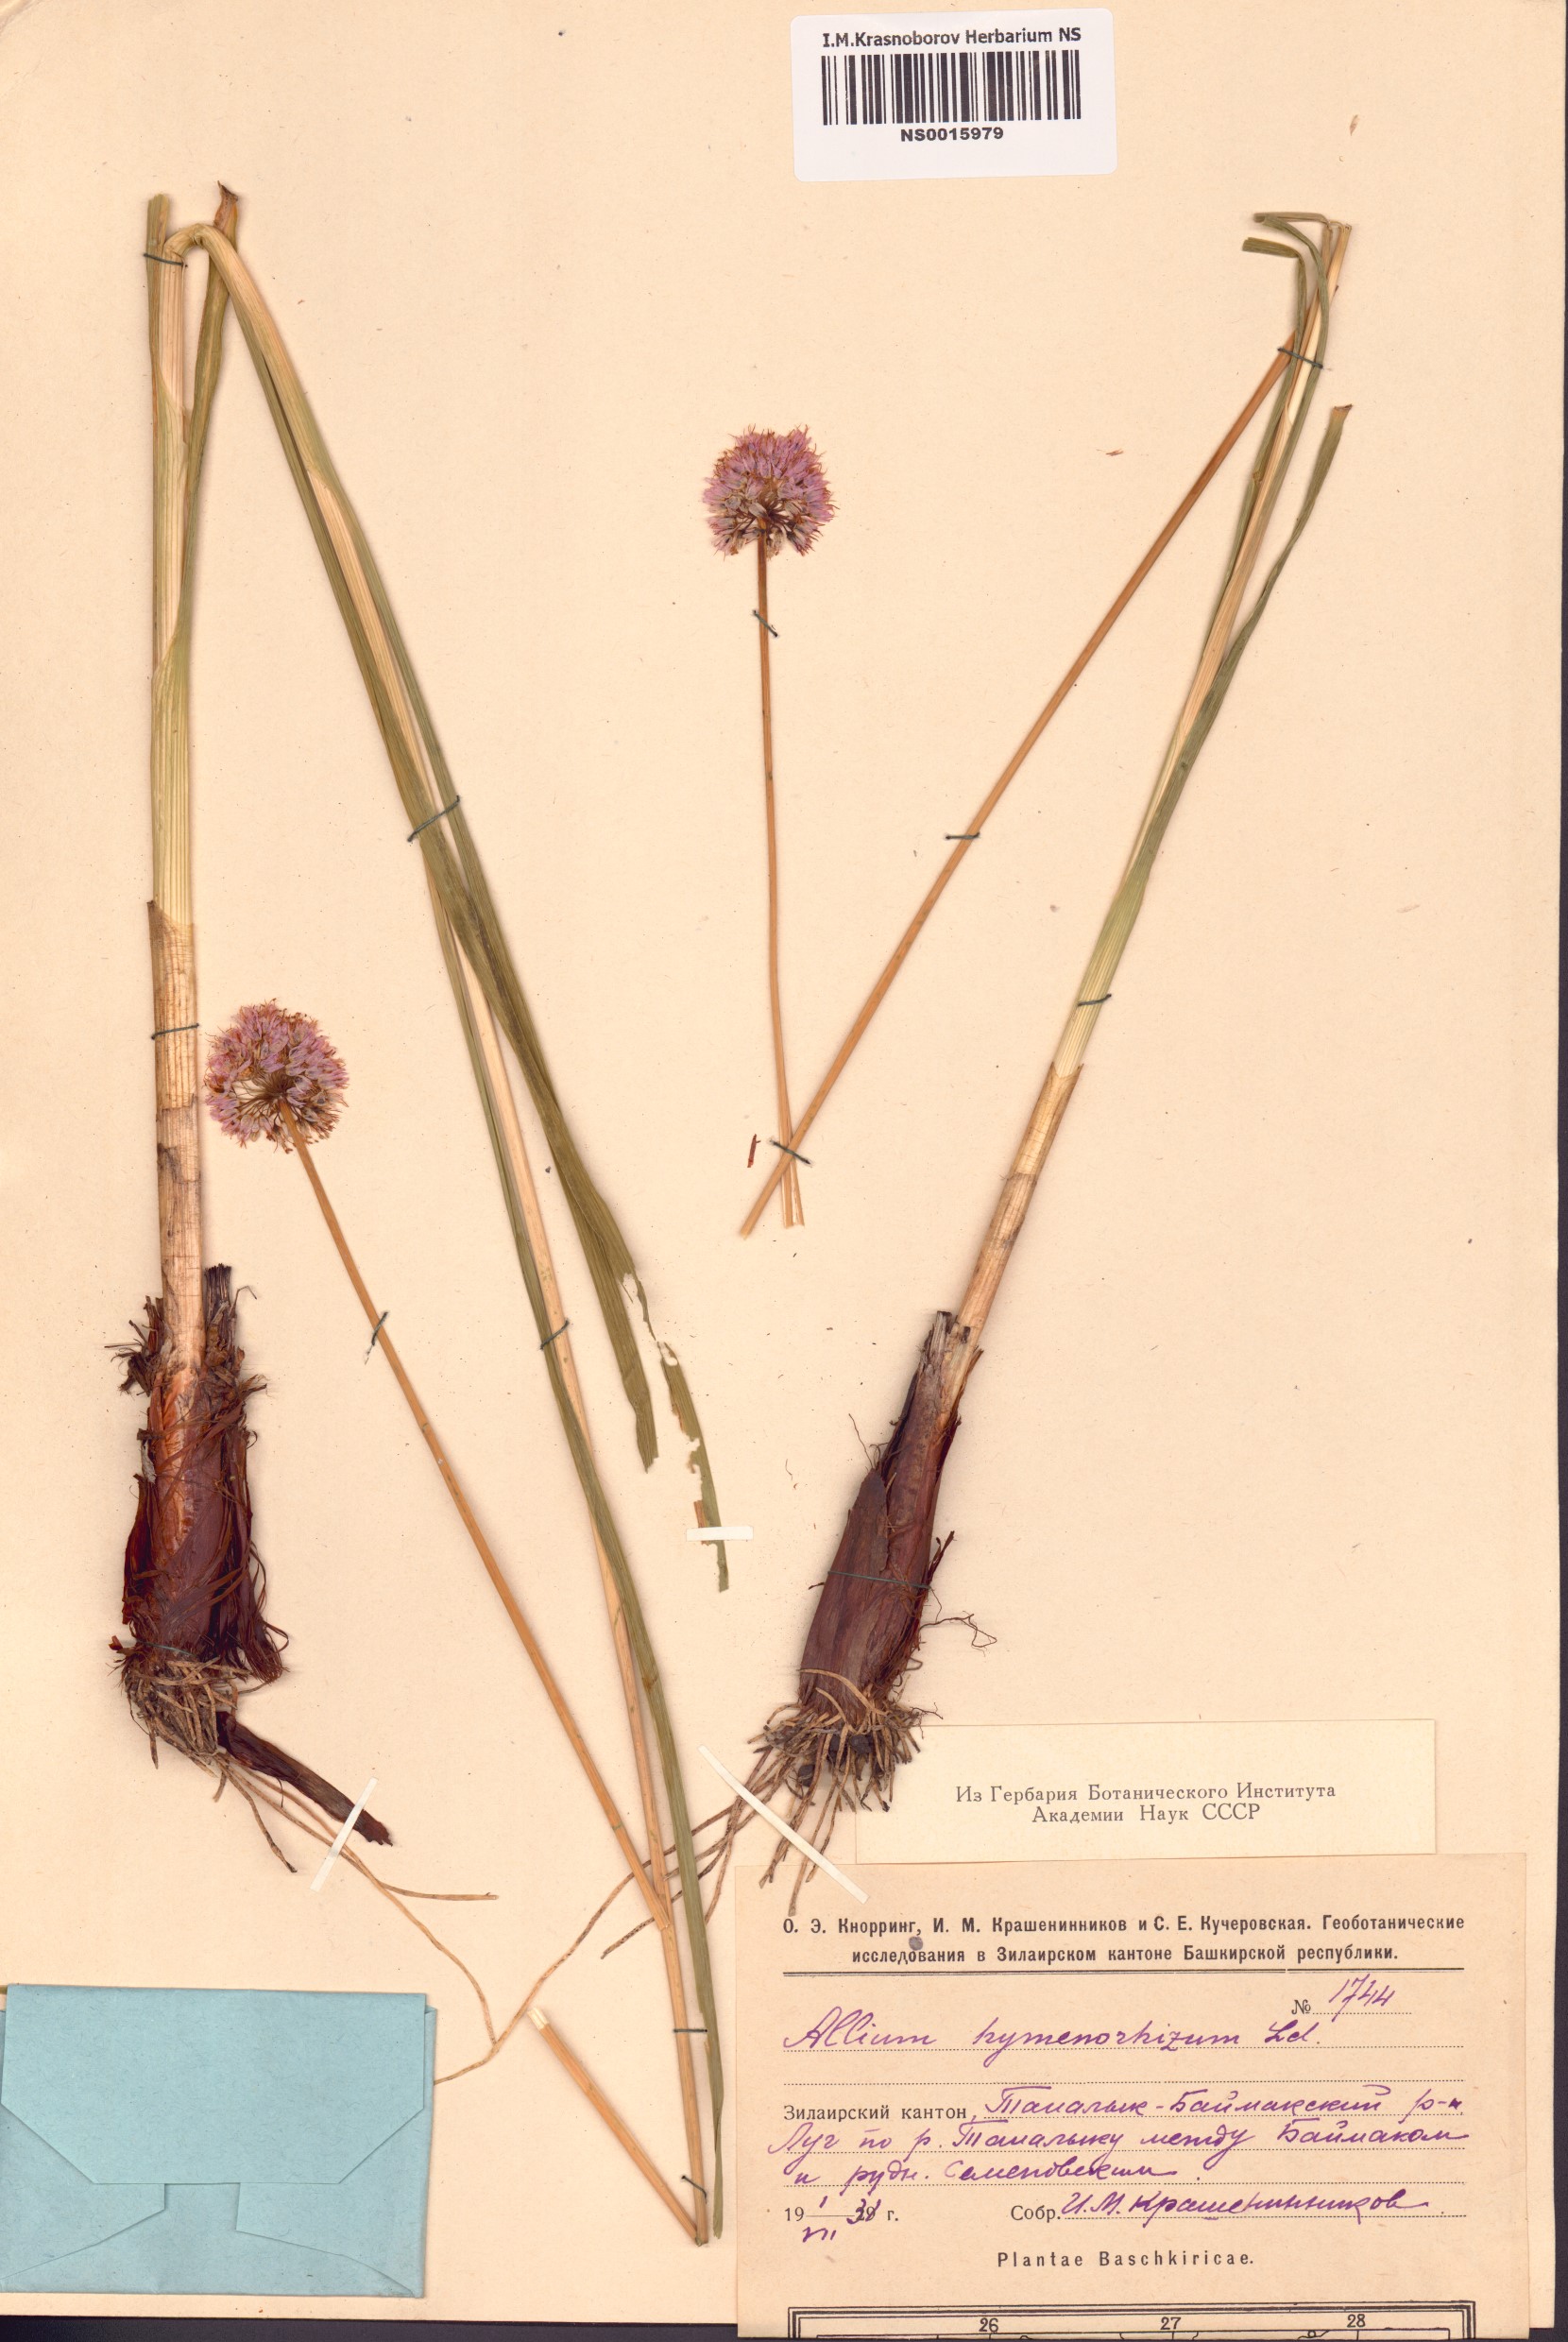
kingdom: Plantae
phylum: Tracheophyta
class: Liliopsida
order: Asparagales
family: Amaryllidaceae
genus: Allium
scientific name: Allium hymenorhizum
